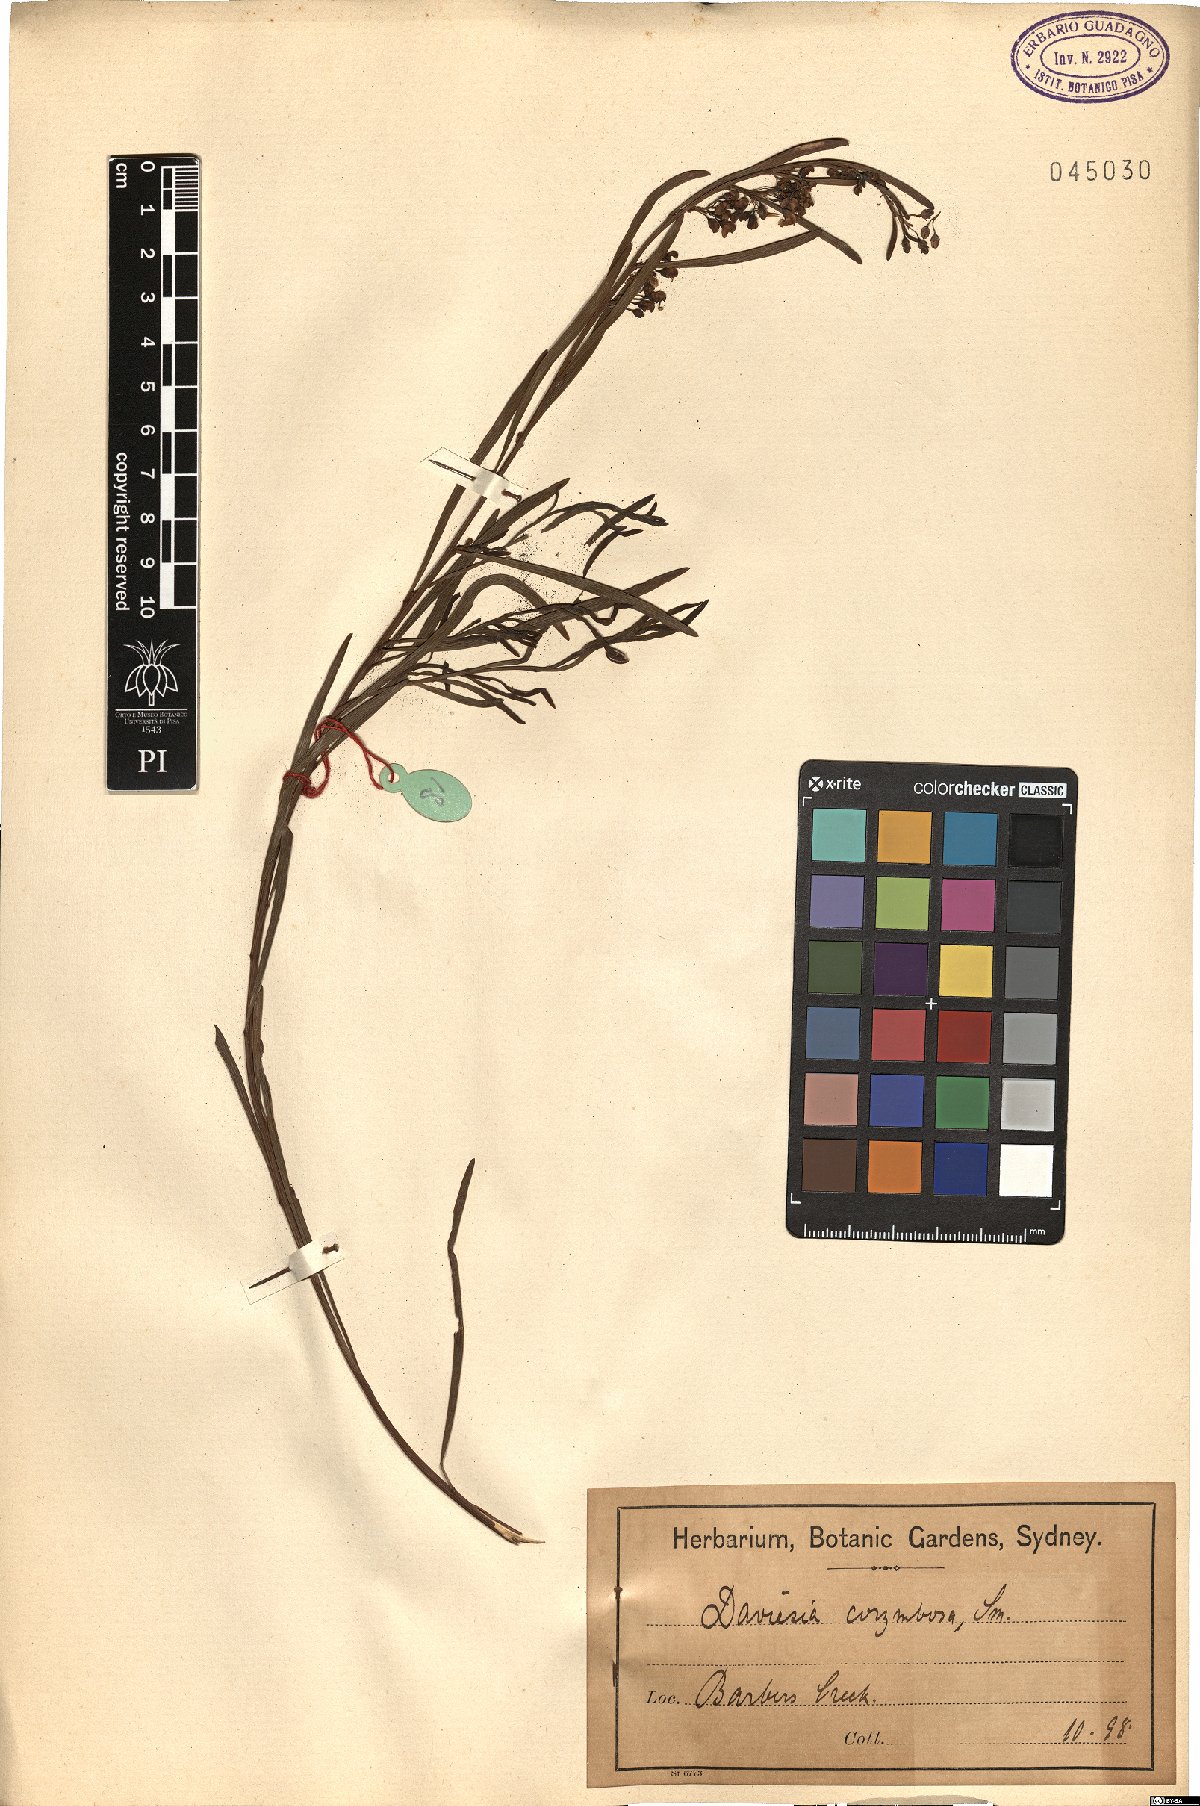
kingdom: Plantae
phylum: Tracheophyta
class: Magnoliopsida
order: Fabales
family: Fabaceae
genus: Daviesia
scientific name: Daviesia corymbosa
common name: Narrow-leaf bitter-pea
